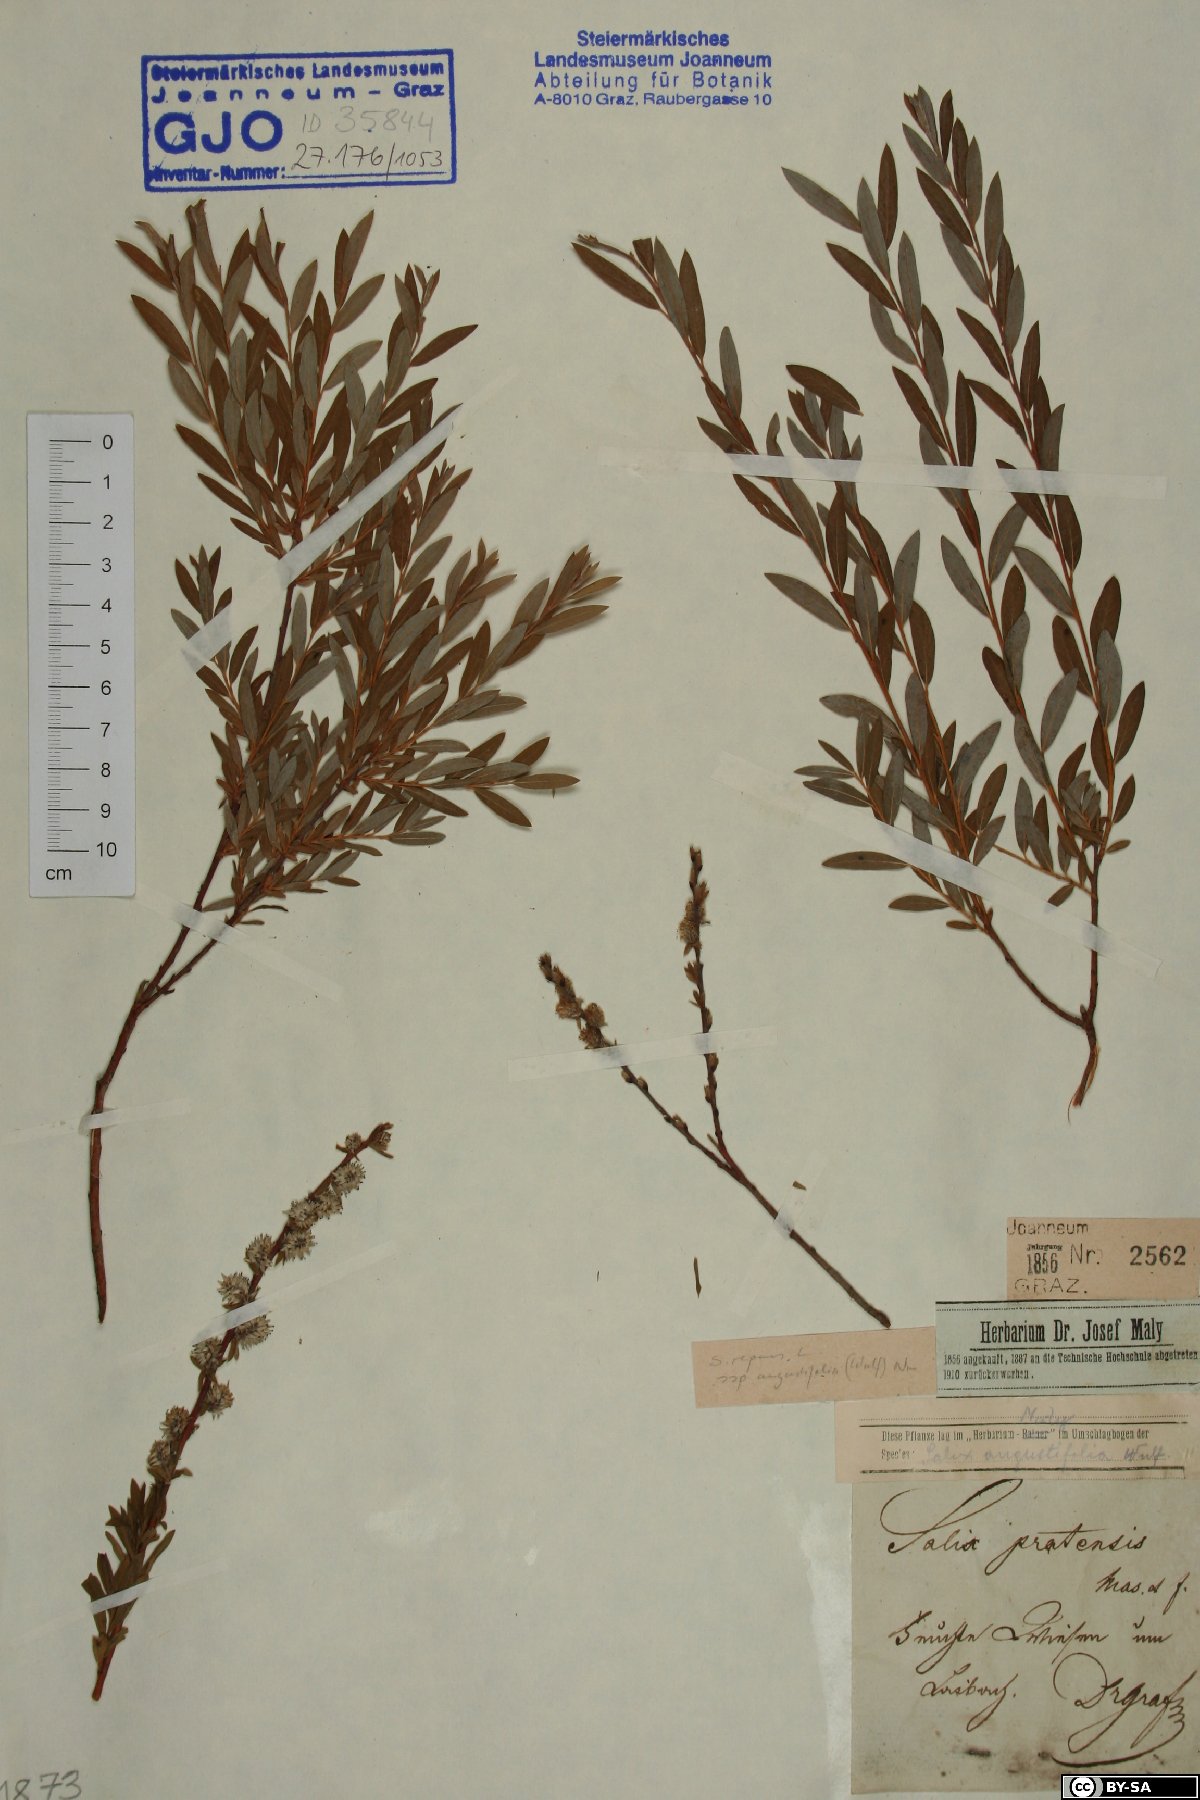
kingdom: Plantae
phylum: Tracheophyta
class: Magnoliopsida
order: Malpighiales
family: Salicaceae
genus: Salix
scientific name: Salix rosmarinifolia
